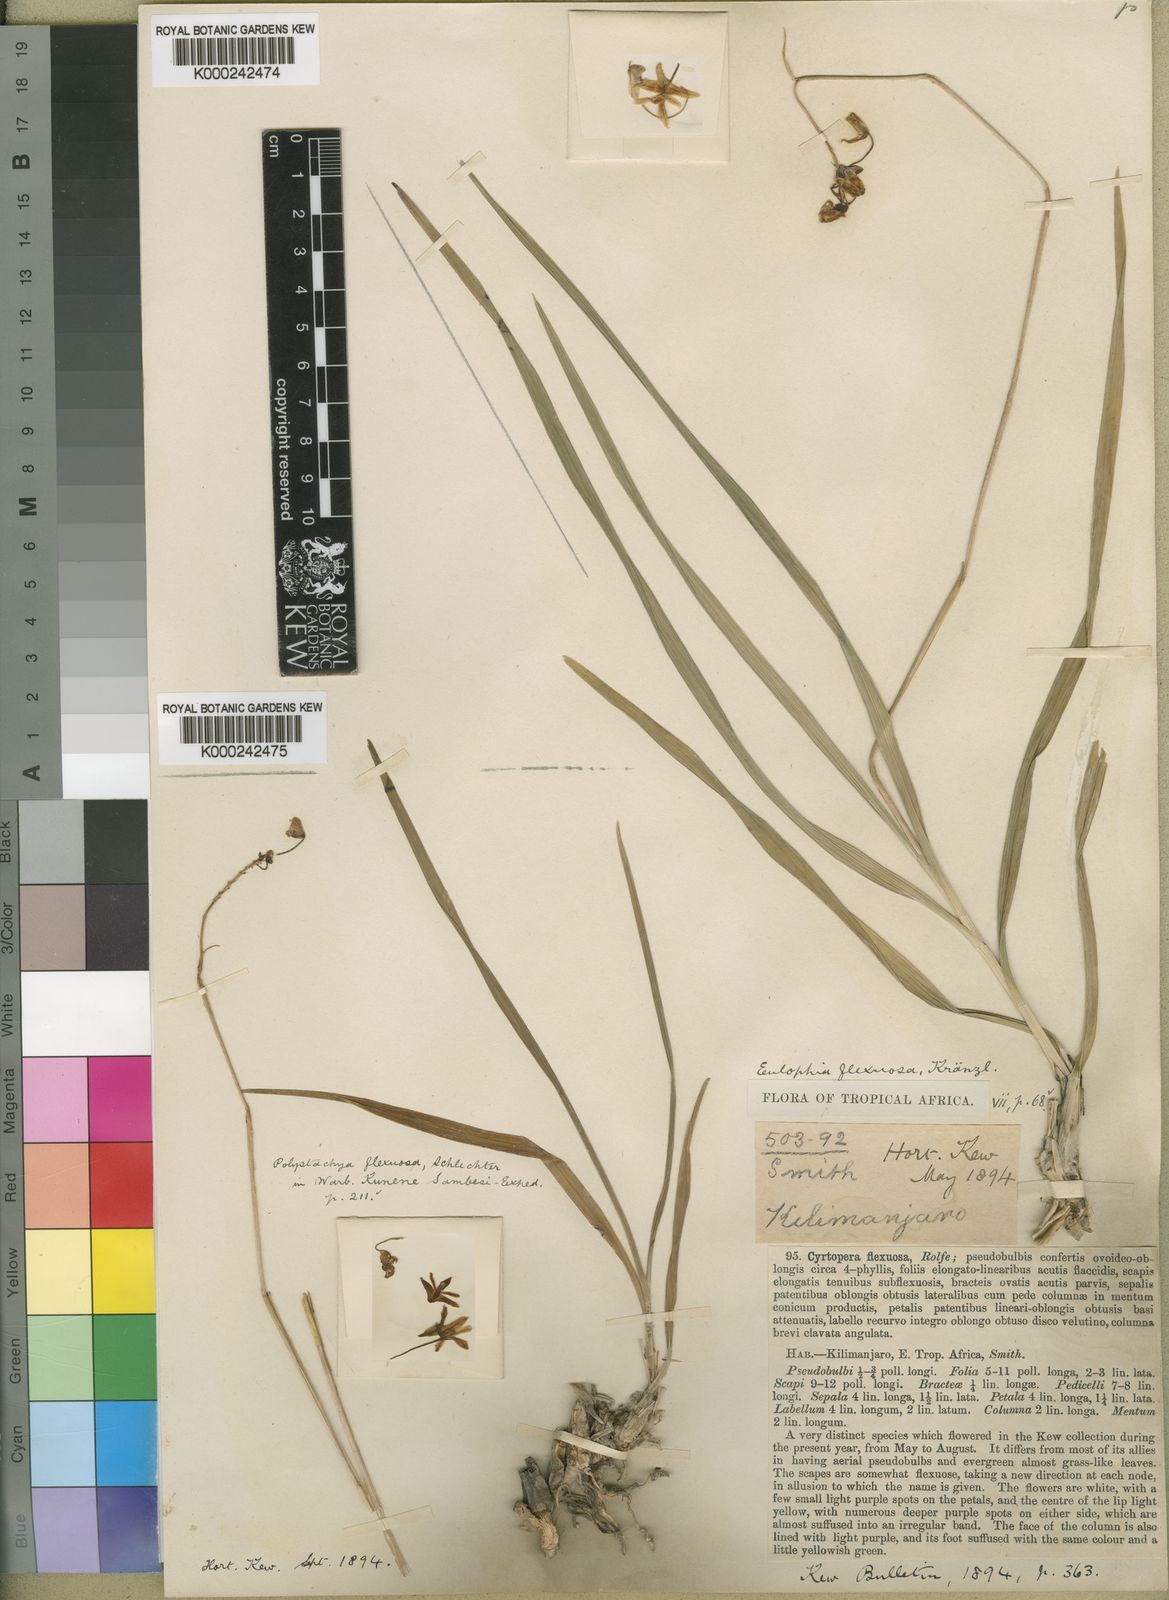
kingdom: Plantae
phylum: Tracheophyta
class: Liliopsida
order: Asparagales
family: Orchidaceae
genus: Polystachya
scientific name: Polystachya dendrobiiflora
